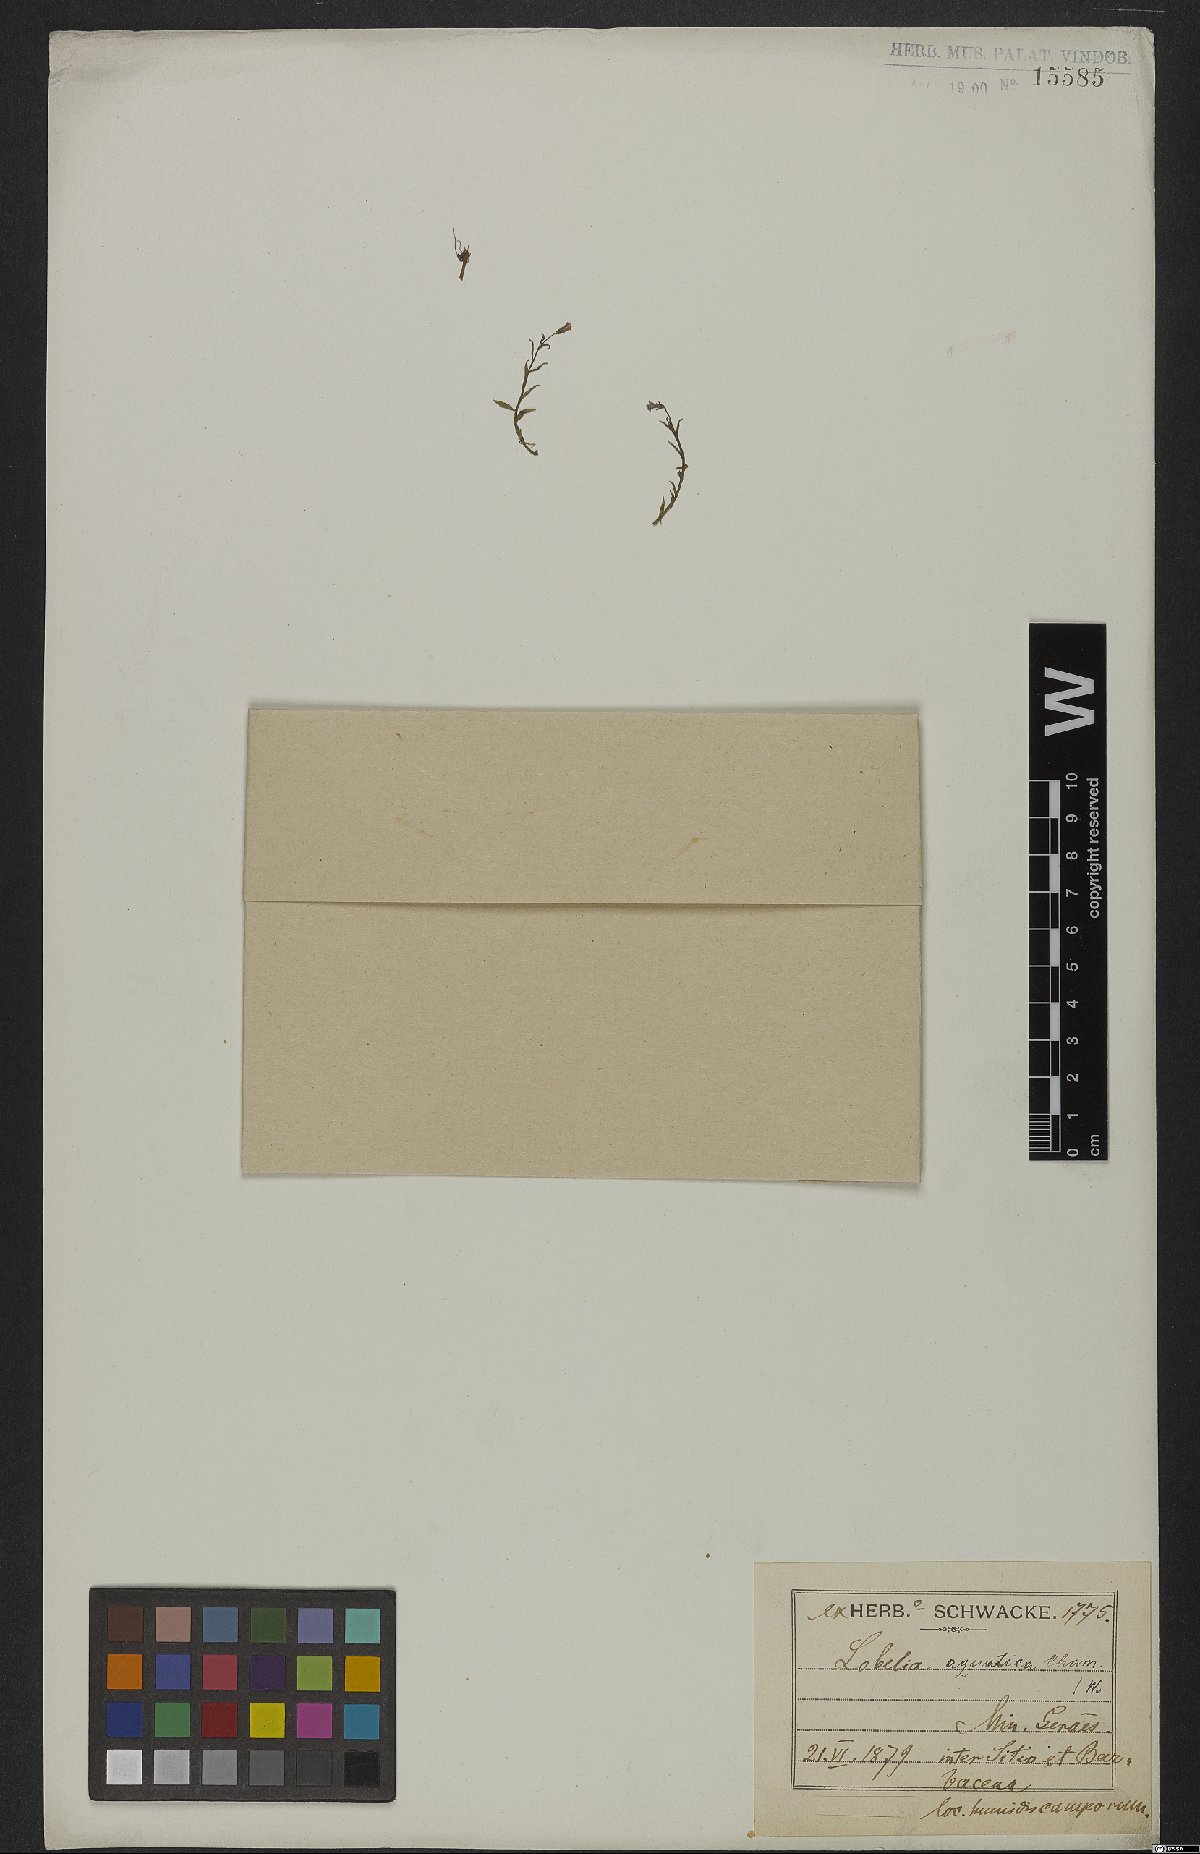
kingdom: Plantae
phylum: Tracheophyta
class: Magnoliopsida
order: Asterales
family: Campanulaceae
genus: Lobelia
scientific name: Lobelia aquatica
